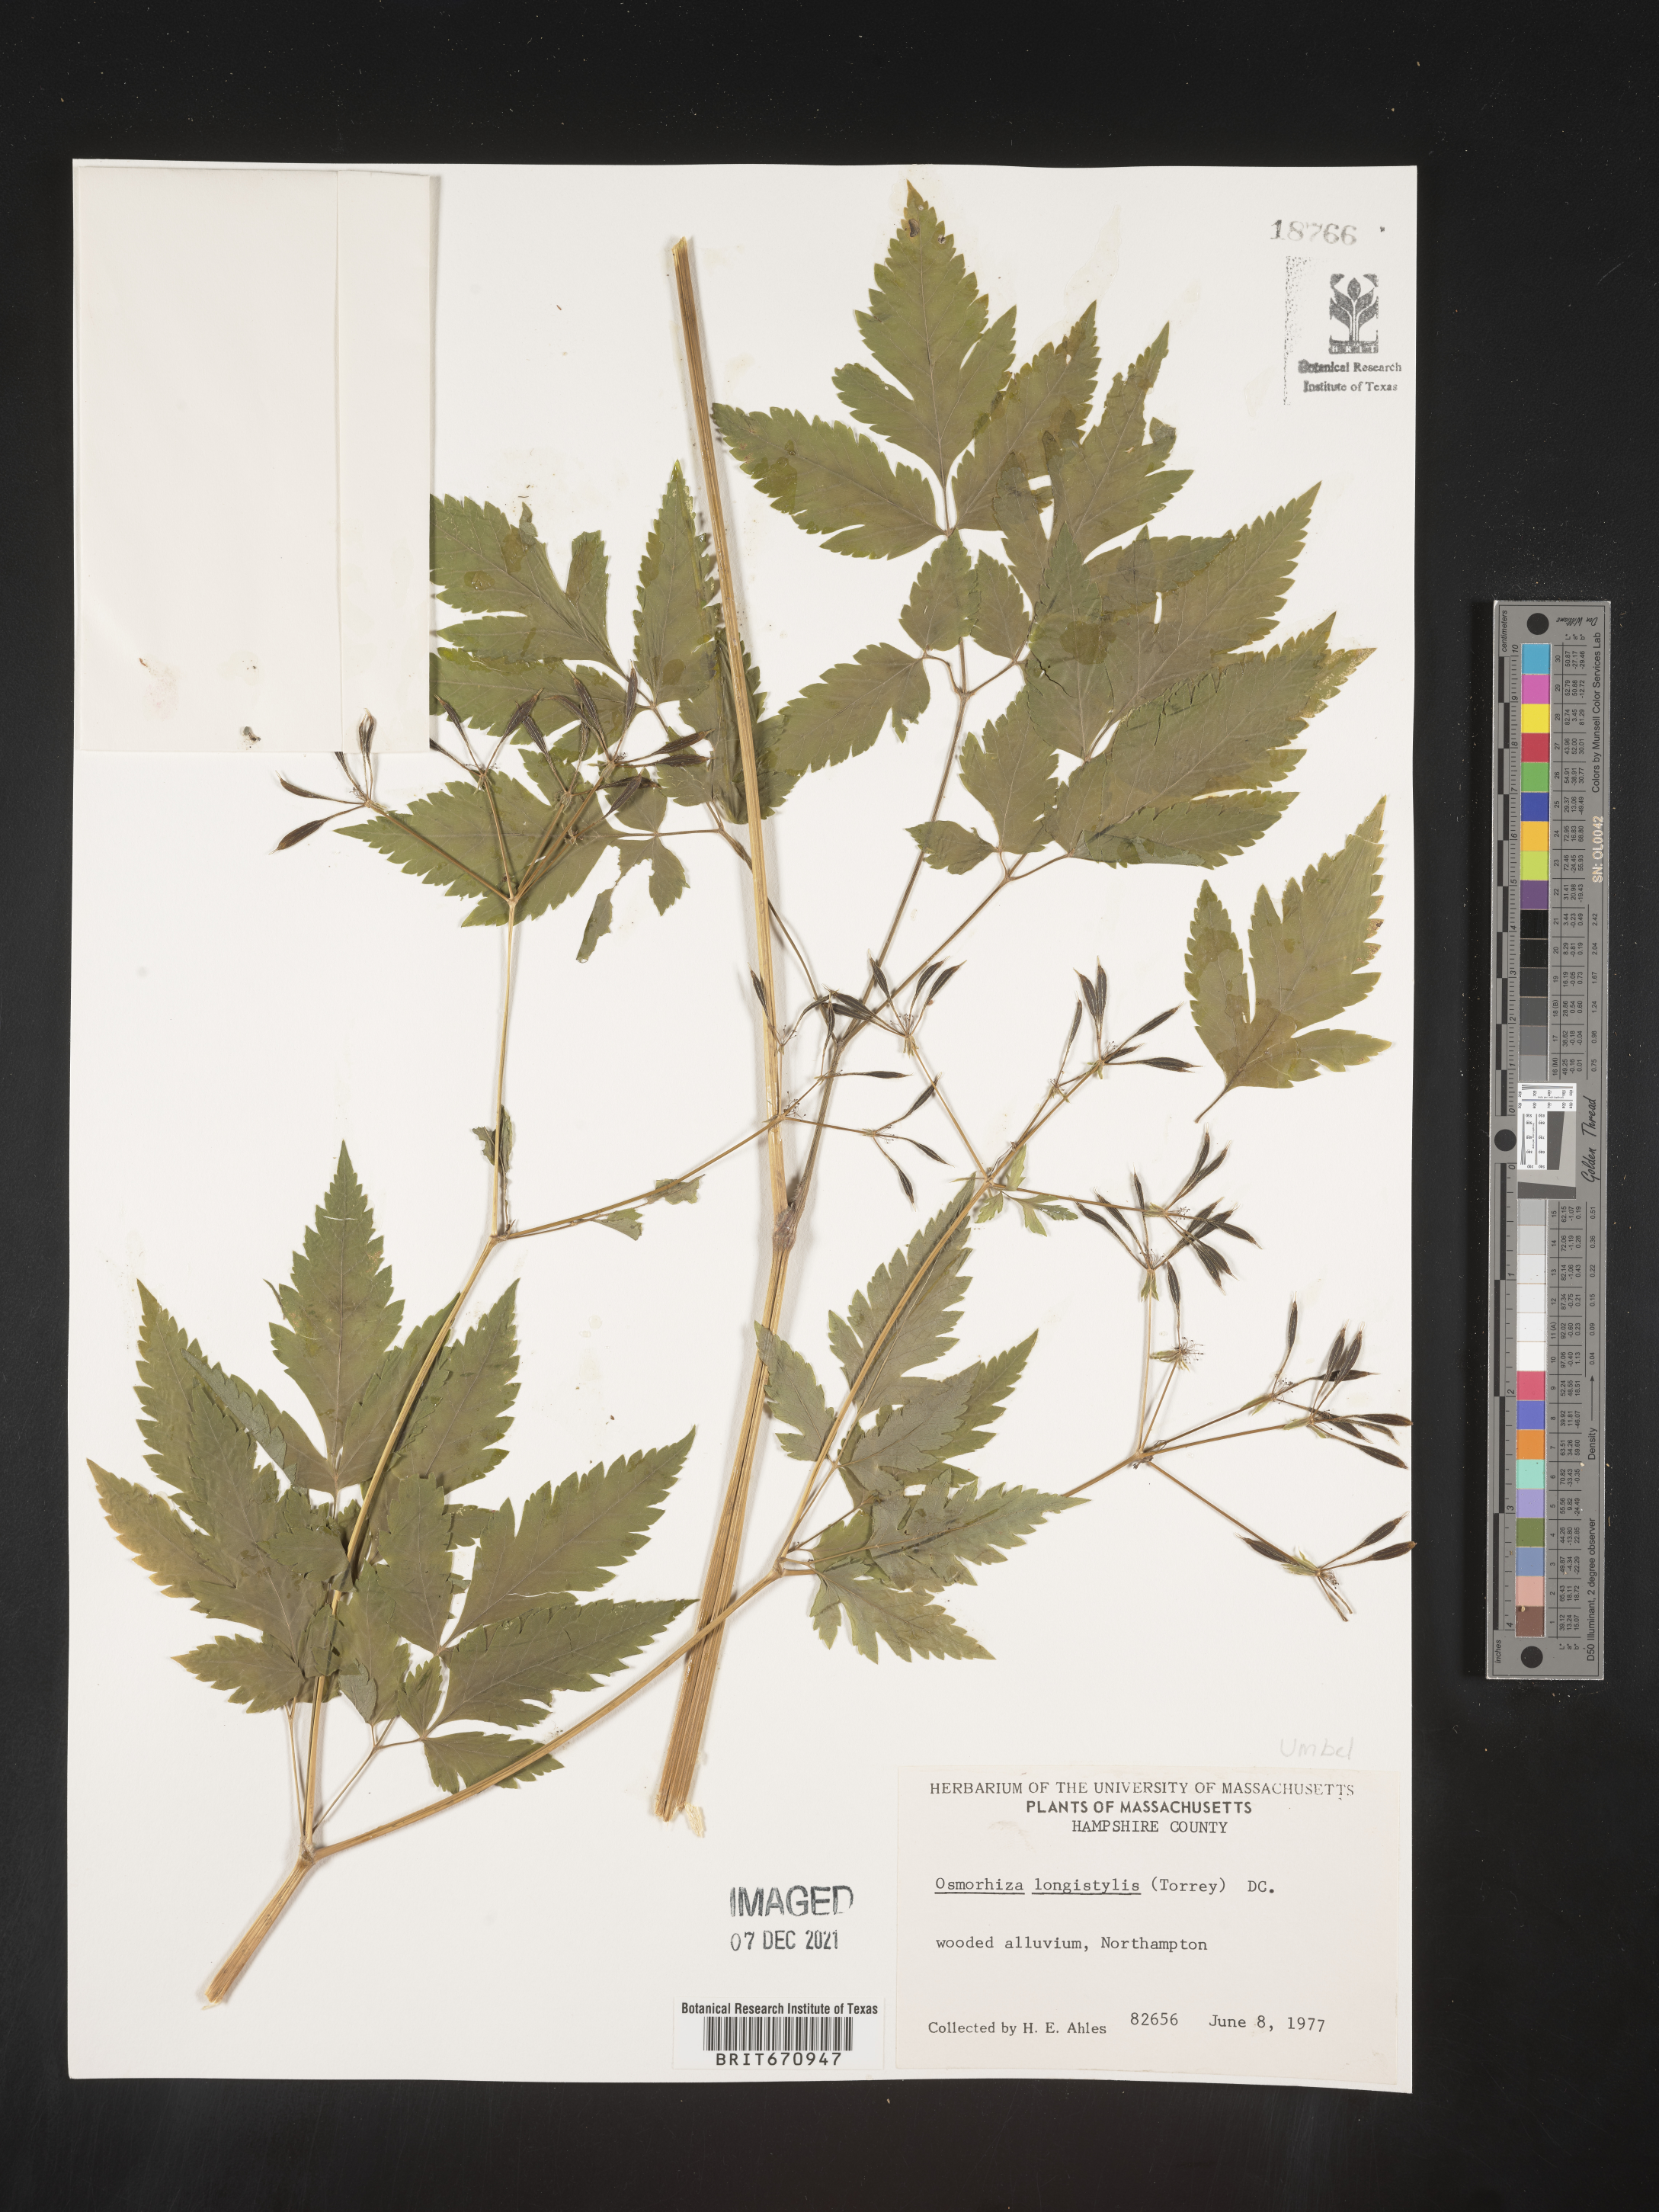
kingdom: Plantae
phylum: Tracheophyta
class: Magnoliopsida
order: Apiales
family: Apiaceae
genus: Osmorhiza
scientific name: Osmorhiza longistylis
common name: Smooth sweet cicely
